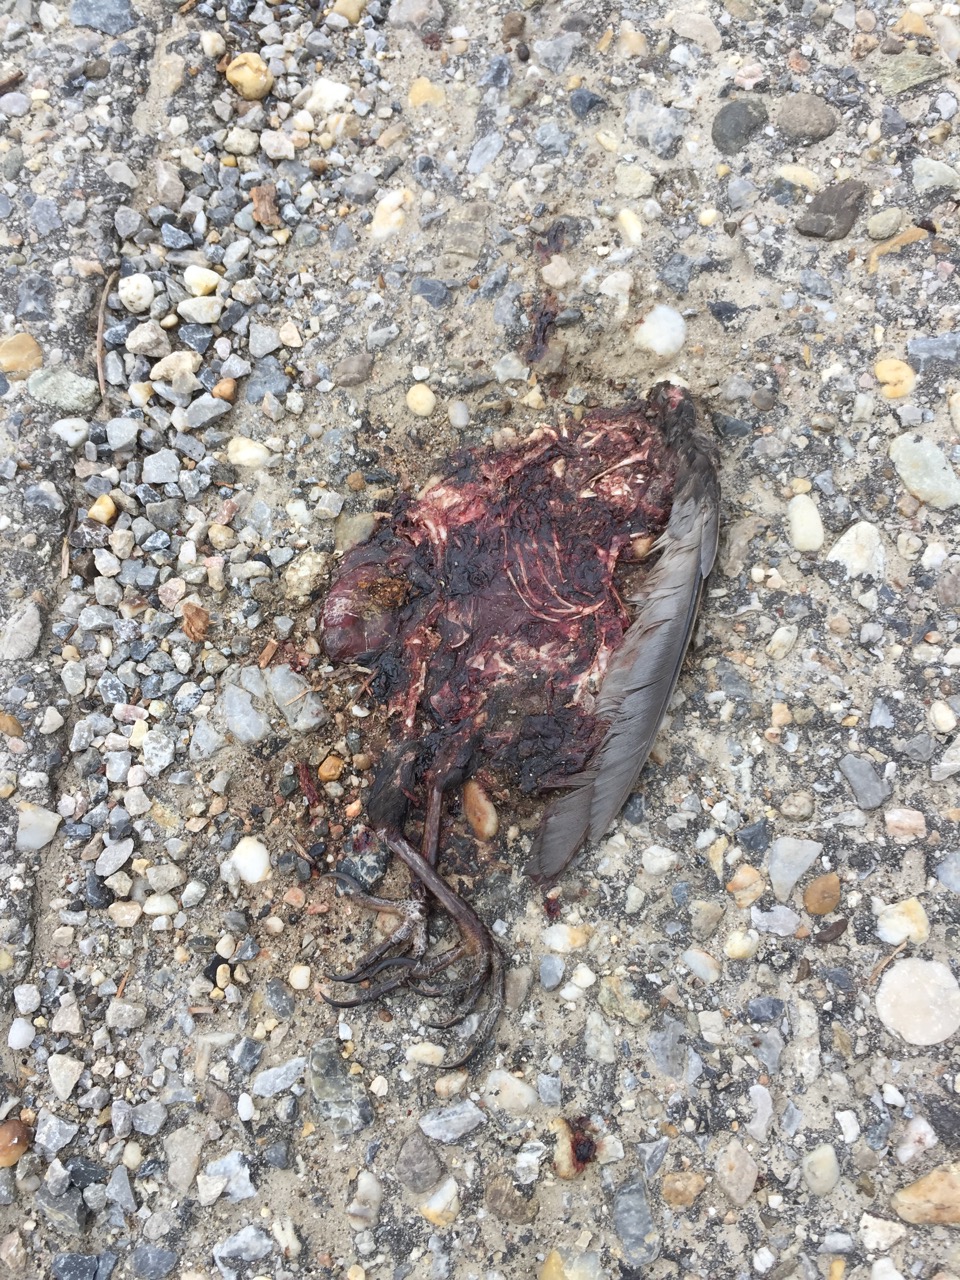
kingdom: Animalia
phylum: Chordata
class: Aves
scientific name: Aves
